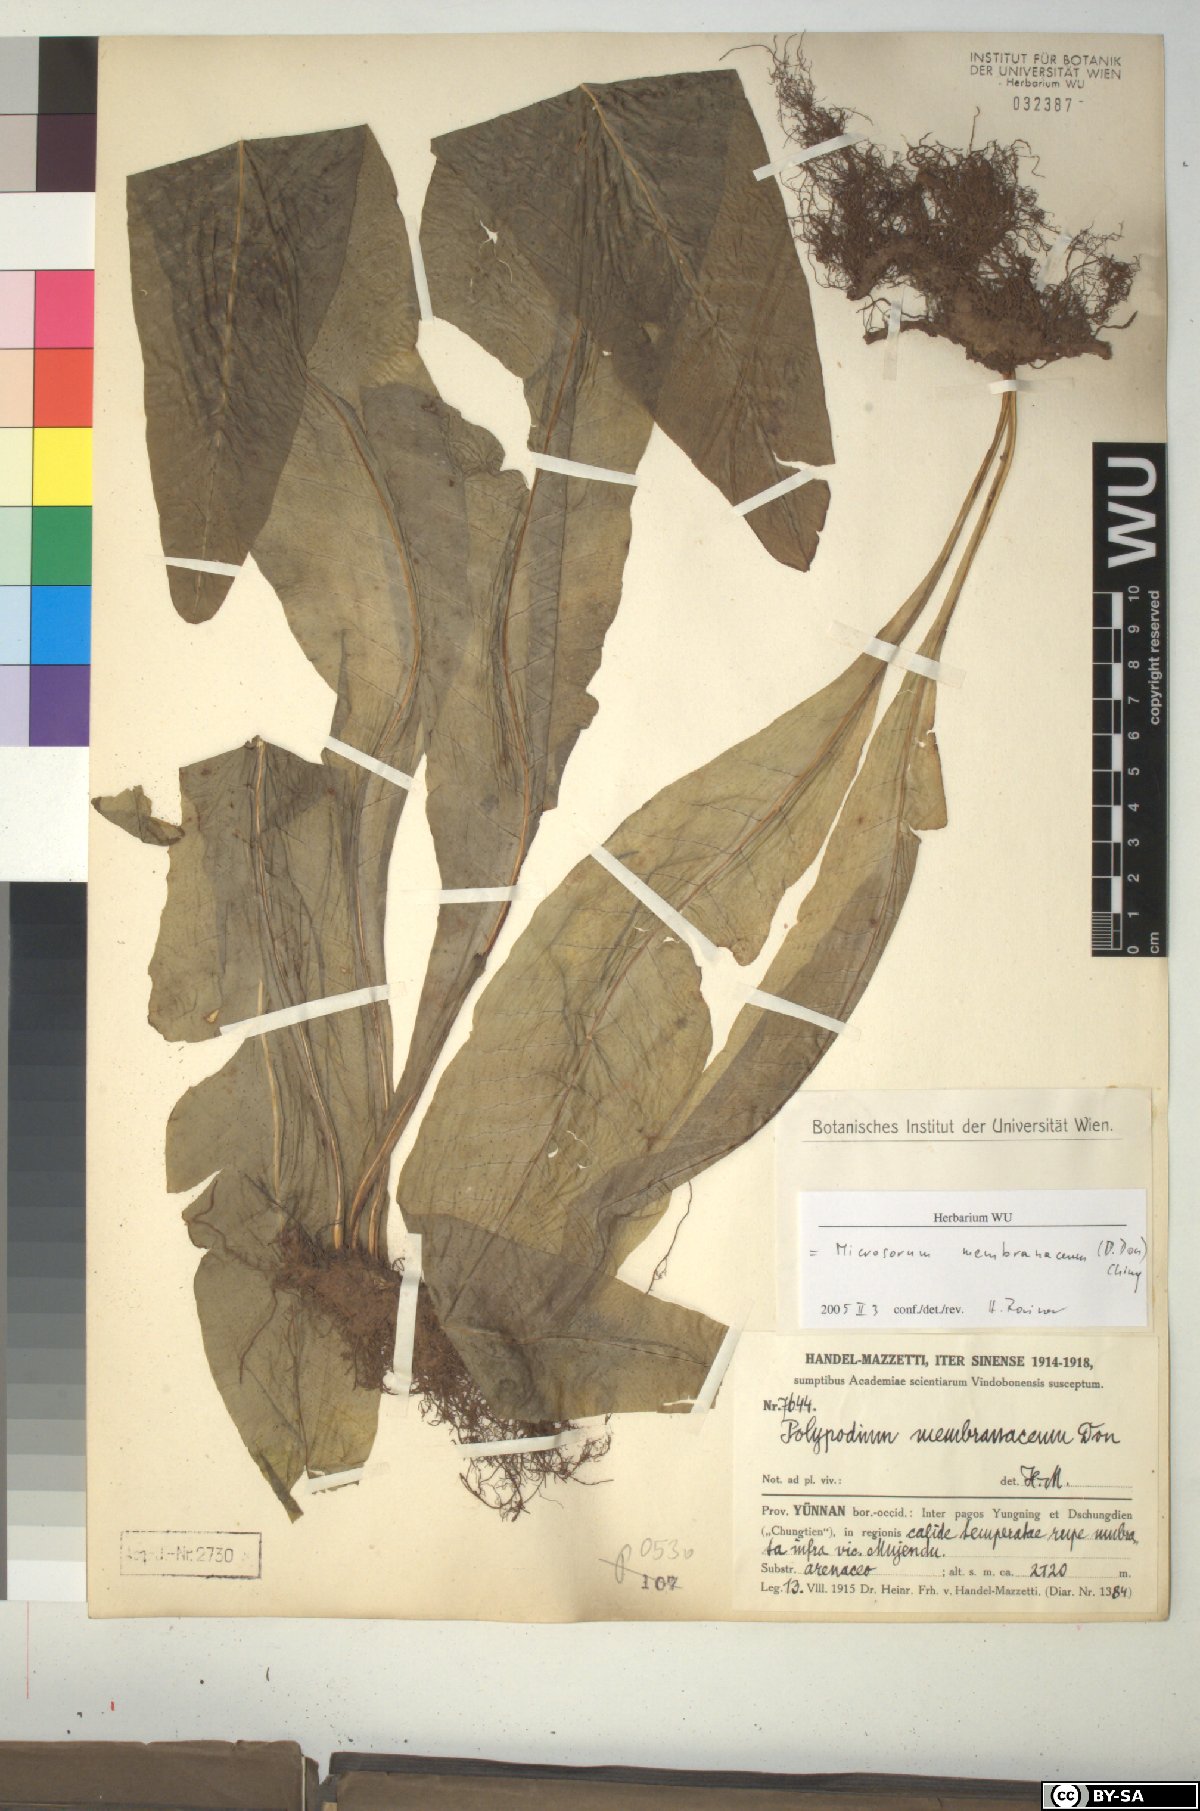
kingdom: Plantae
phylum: Tracheophyta
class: Polypodiopsida
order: Polypodiales
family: Polypodiaceae
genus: Bosmania
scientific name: Bosmania membranacea
